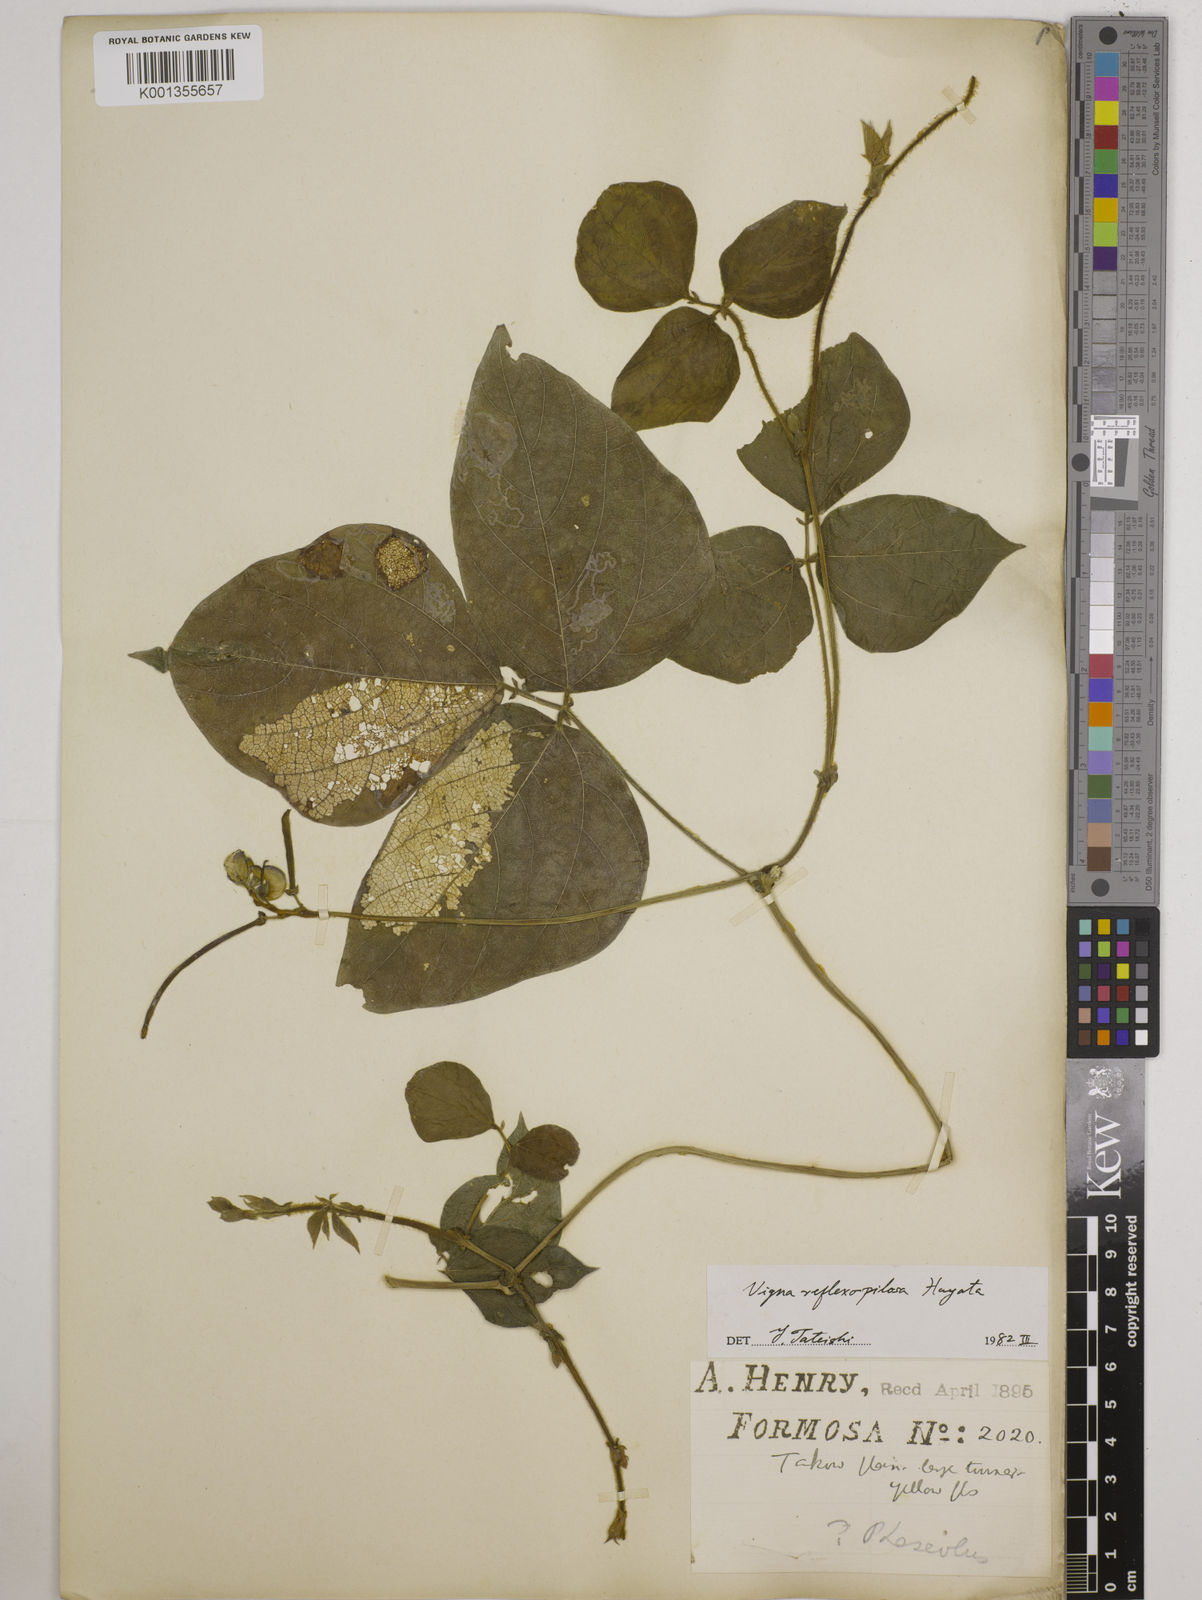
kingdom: Plantae
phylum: Tracheophyta
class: Magnoliopsida
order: Fabales
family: Fabaceae
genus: Vigna
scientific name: Vigna reflexopilosa
